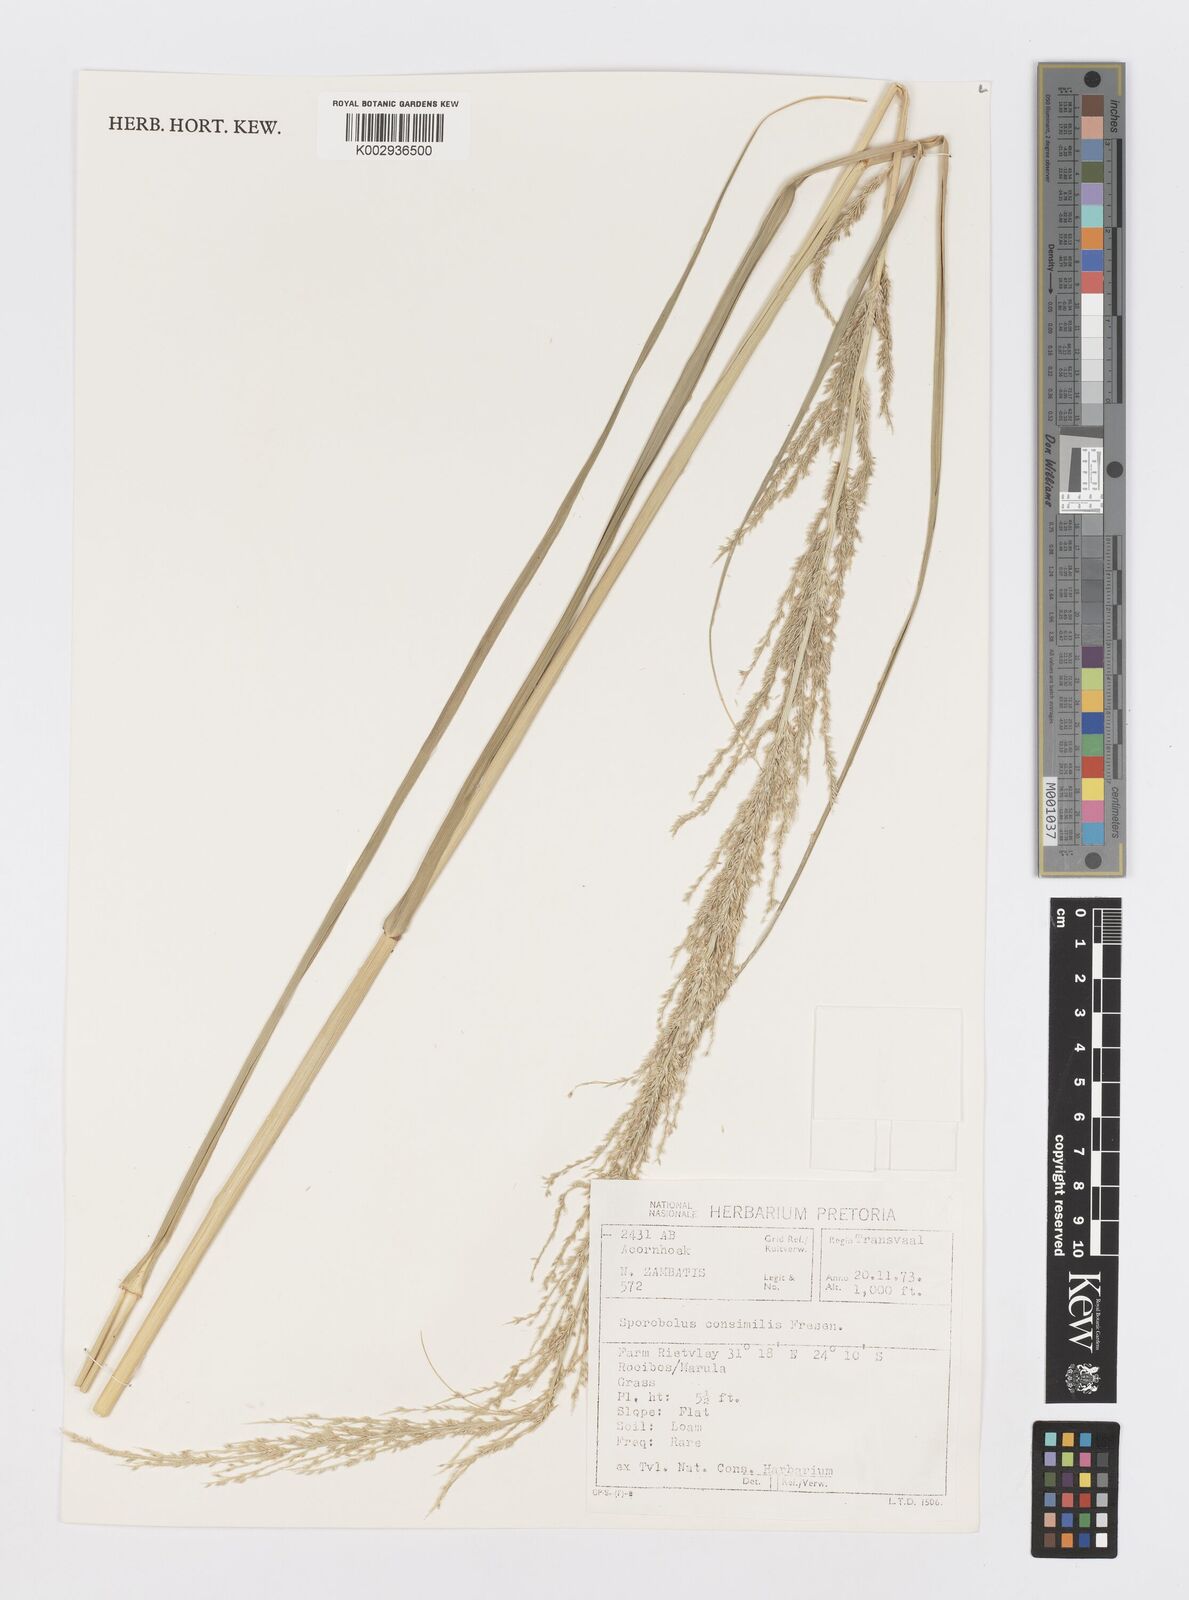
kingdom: Plantae
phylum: Tracheophyta
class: Liliopsida
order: Poales
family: Poaceae
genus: Sporobolus
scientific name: Sporobolus consimilis
